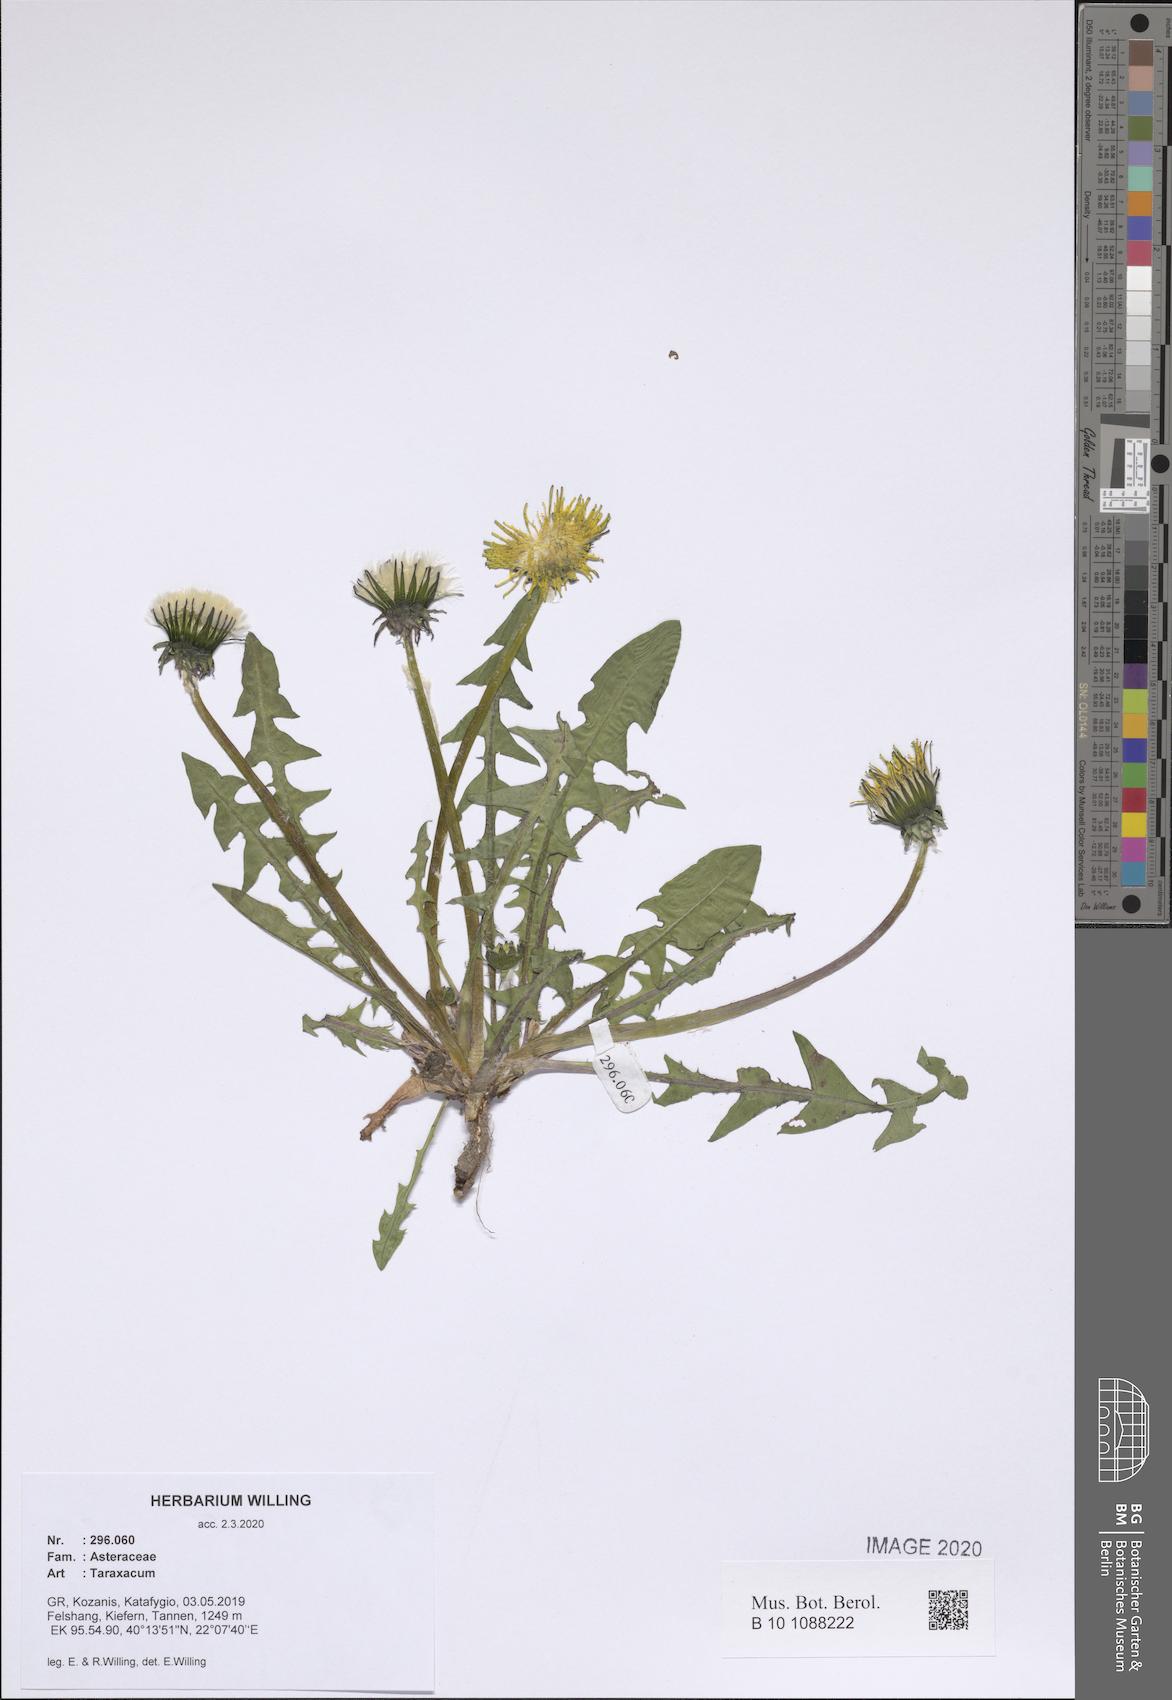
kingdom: Plantae
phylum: Tracheophyta
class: Magnoliopsida
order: Asterales
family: Asteraceae
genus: Taraxacum
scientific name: Taraxacum
